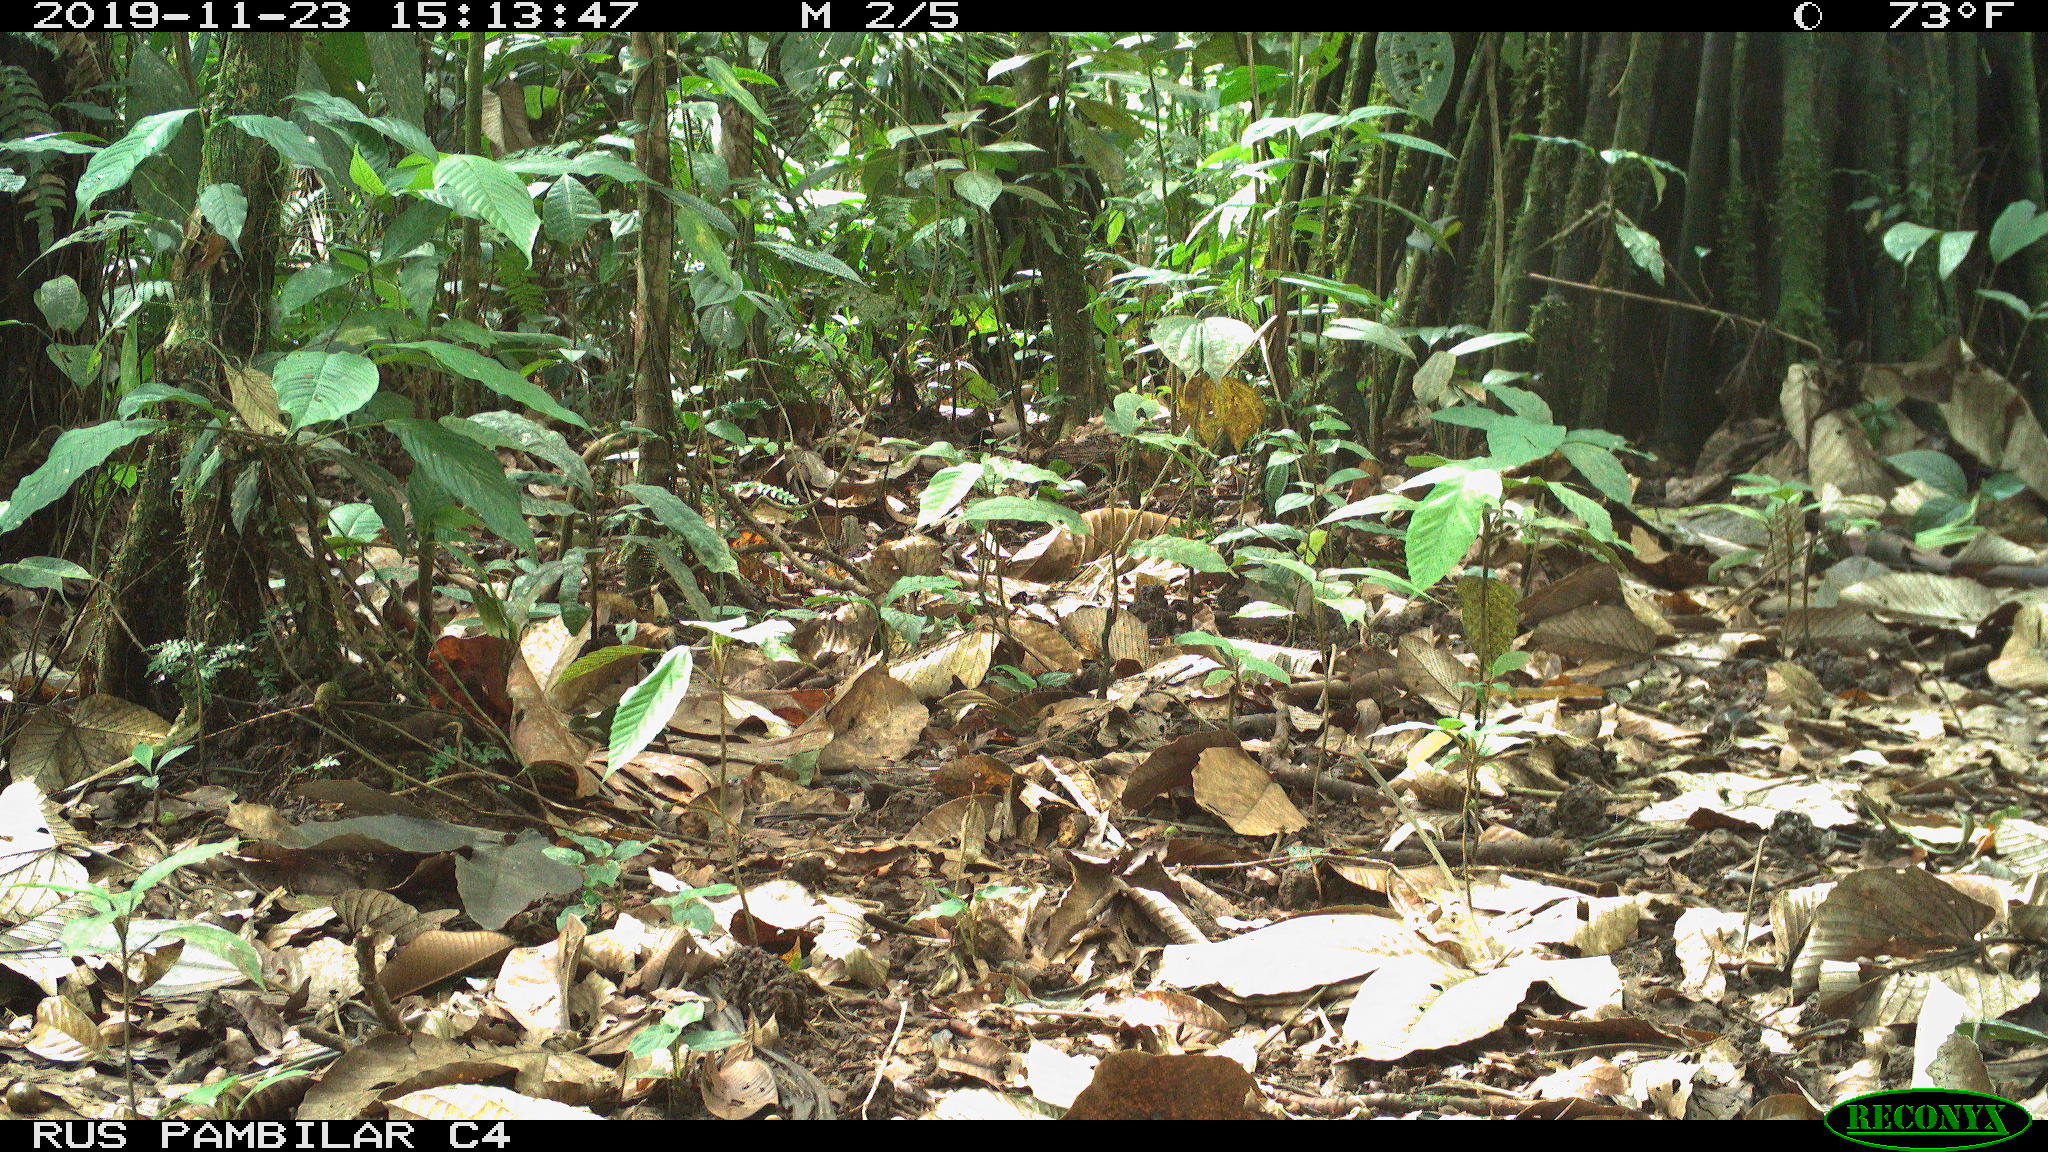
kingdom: Animalia
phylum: Chordata
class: Mammalia
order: Rodentia
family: Dasyproctidae
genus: Dasyprocta
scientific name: Dasyprocta punctata
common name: Central american agouti
